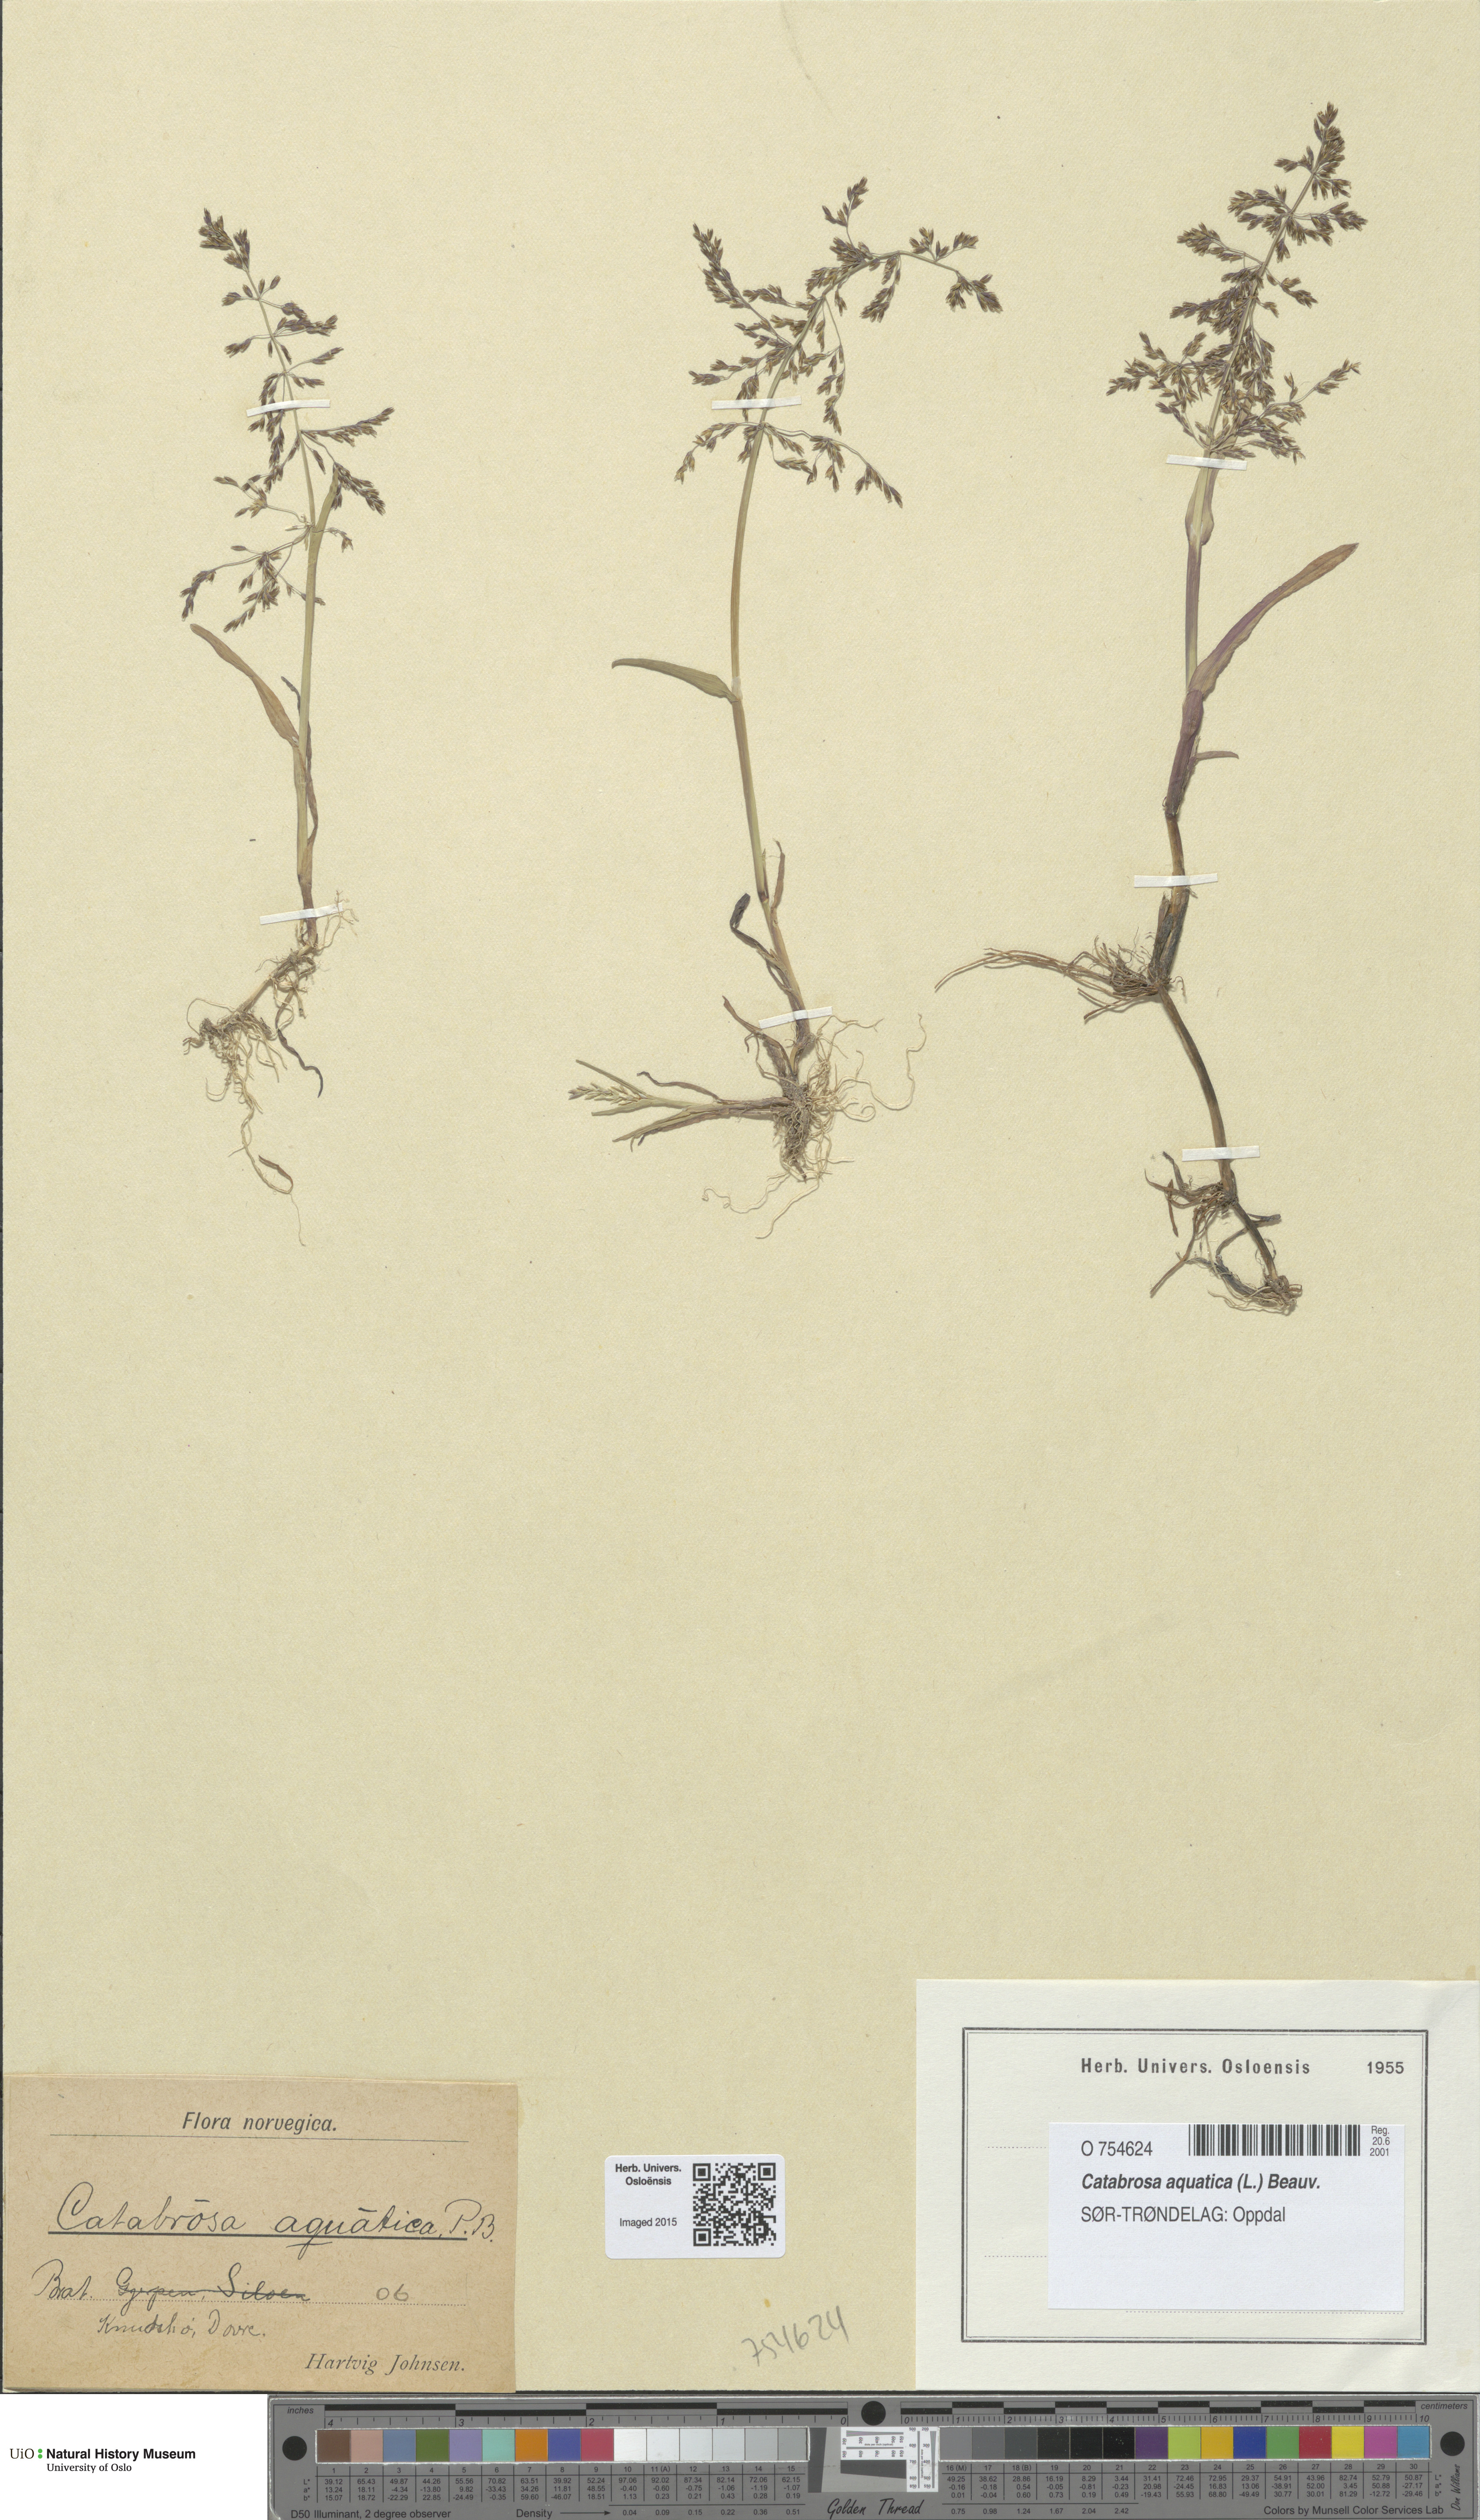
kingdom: Plantae
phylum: Tracheophyta
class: Liliopsida
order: Poales
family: Poaceae
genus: Catabrosa
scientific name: Catabrosa aquatica
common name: Whorl-grass
